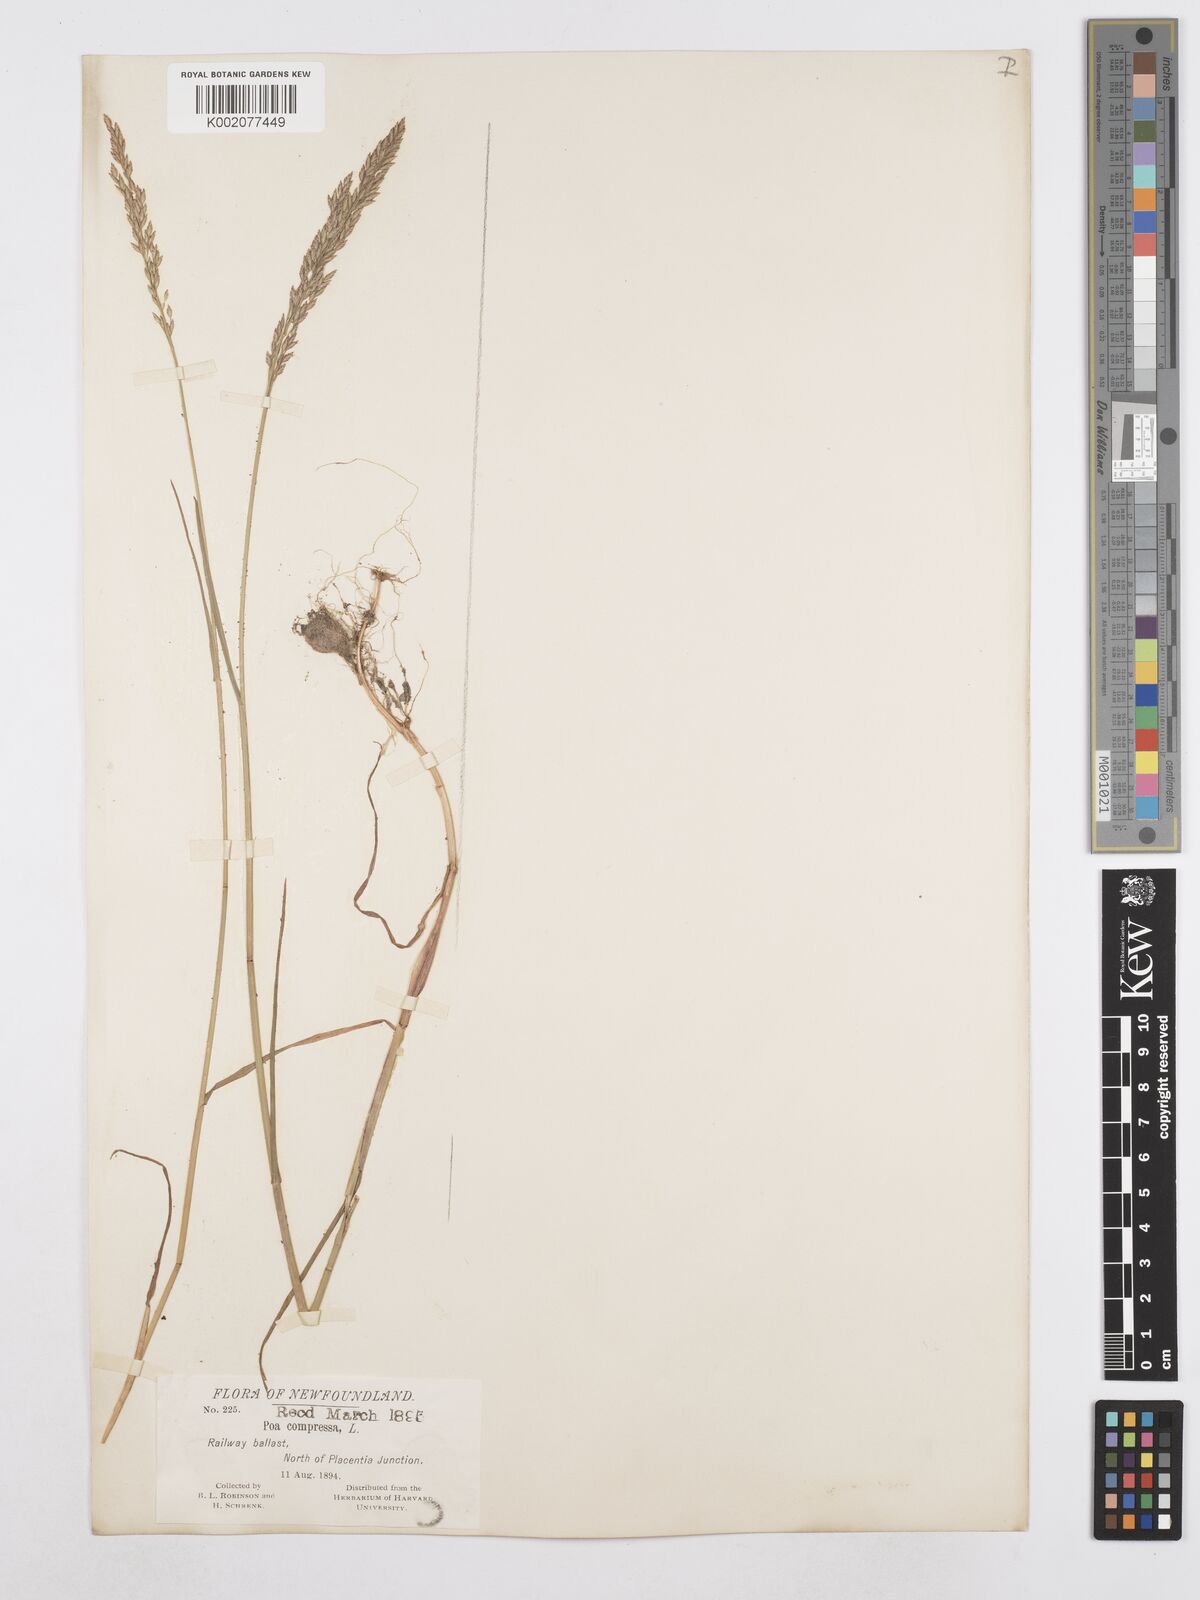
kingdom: Plantae
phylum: Tracheophyta
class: Liliopsida
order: Poales
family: Poaceae
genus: Poa
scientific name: Poa compressa
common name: Canada bluegrass
